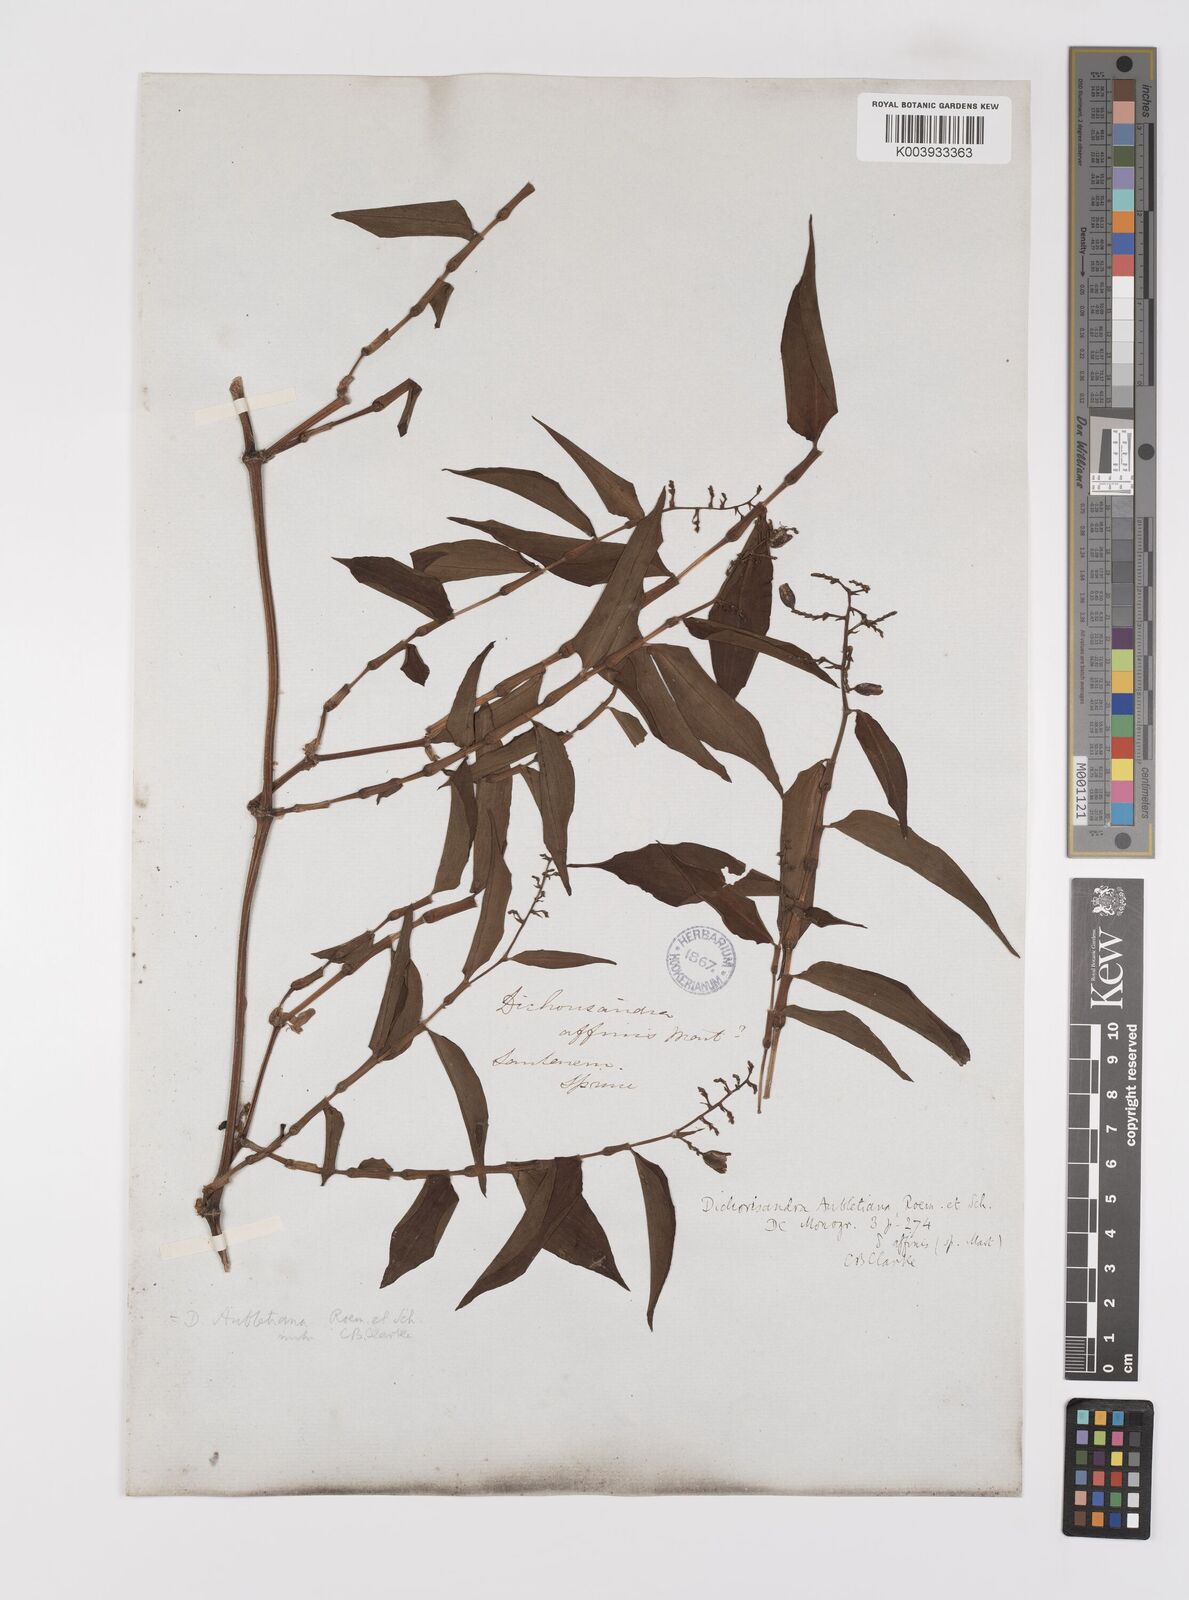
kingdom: Plantae
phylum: Tracheophyta
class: Liliopsida
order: Commelinales
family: Commelinaceae
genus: Dichorisandra
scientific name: Dichorisandra hexandra
